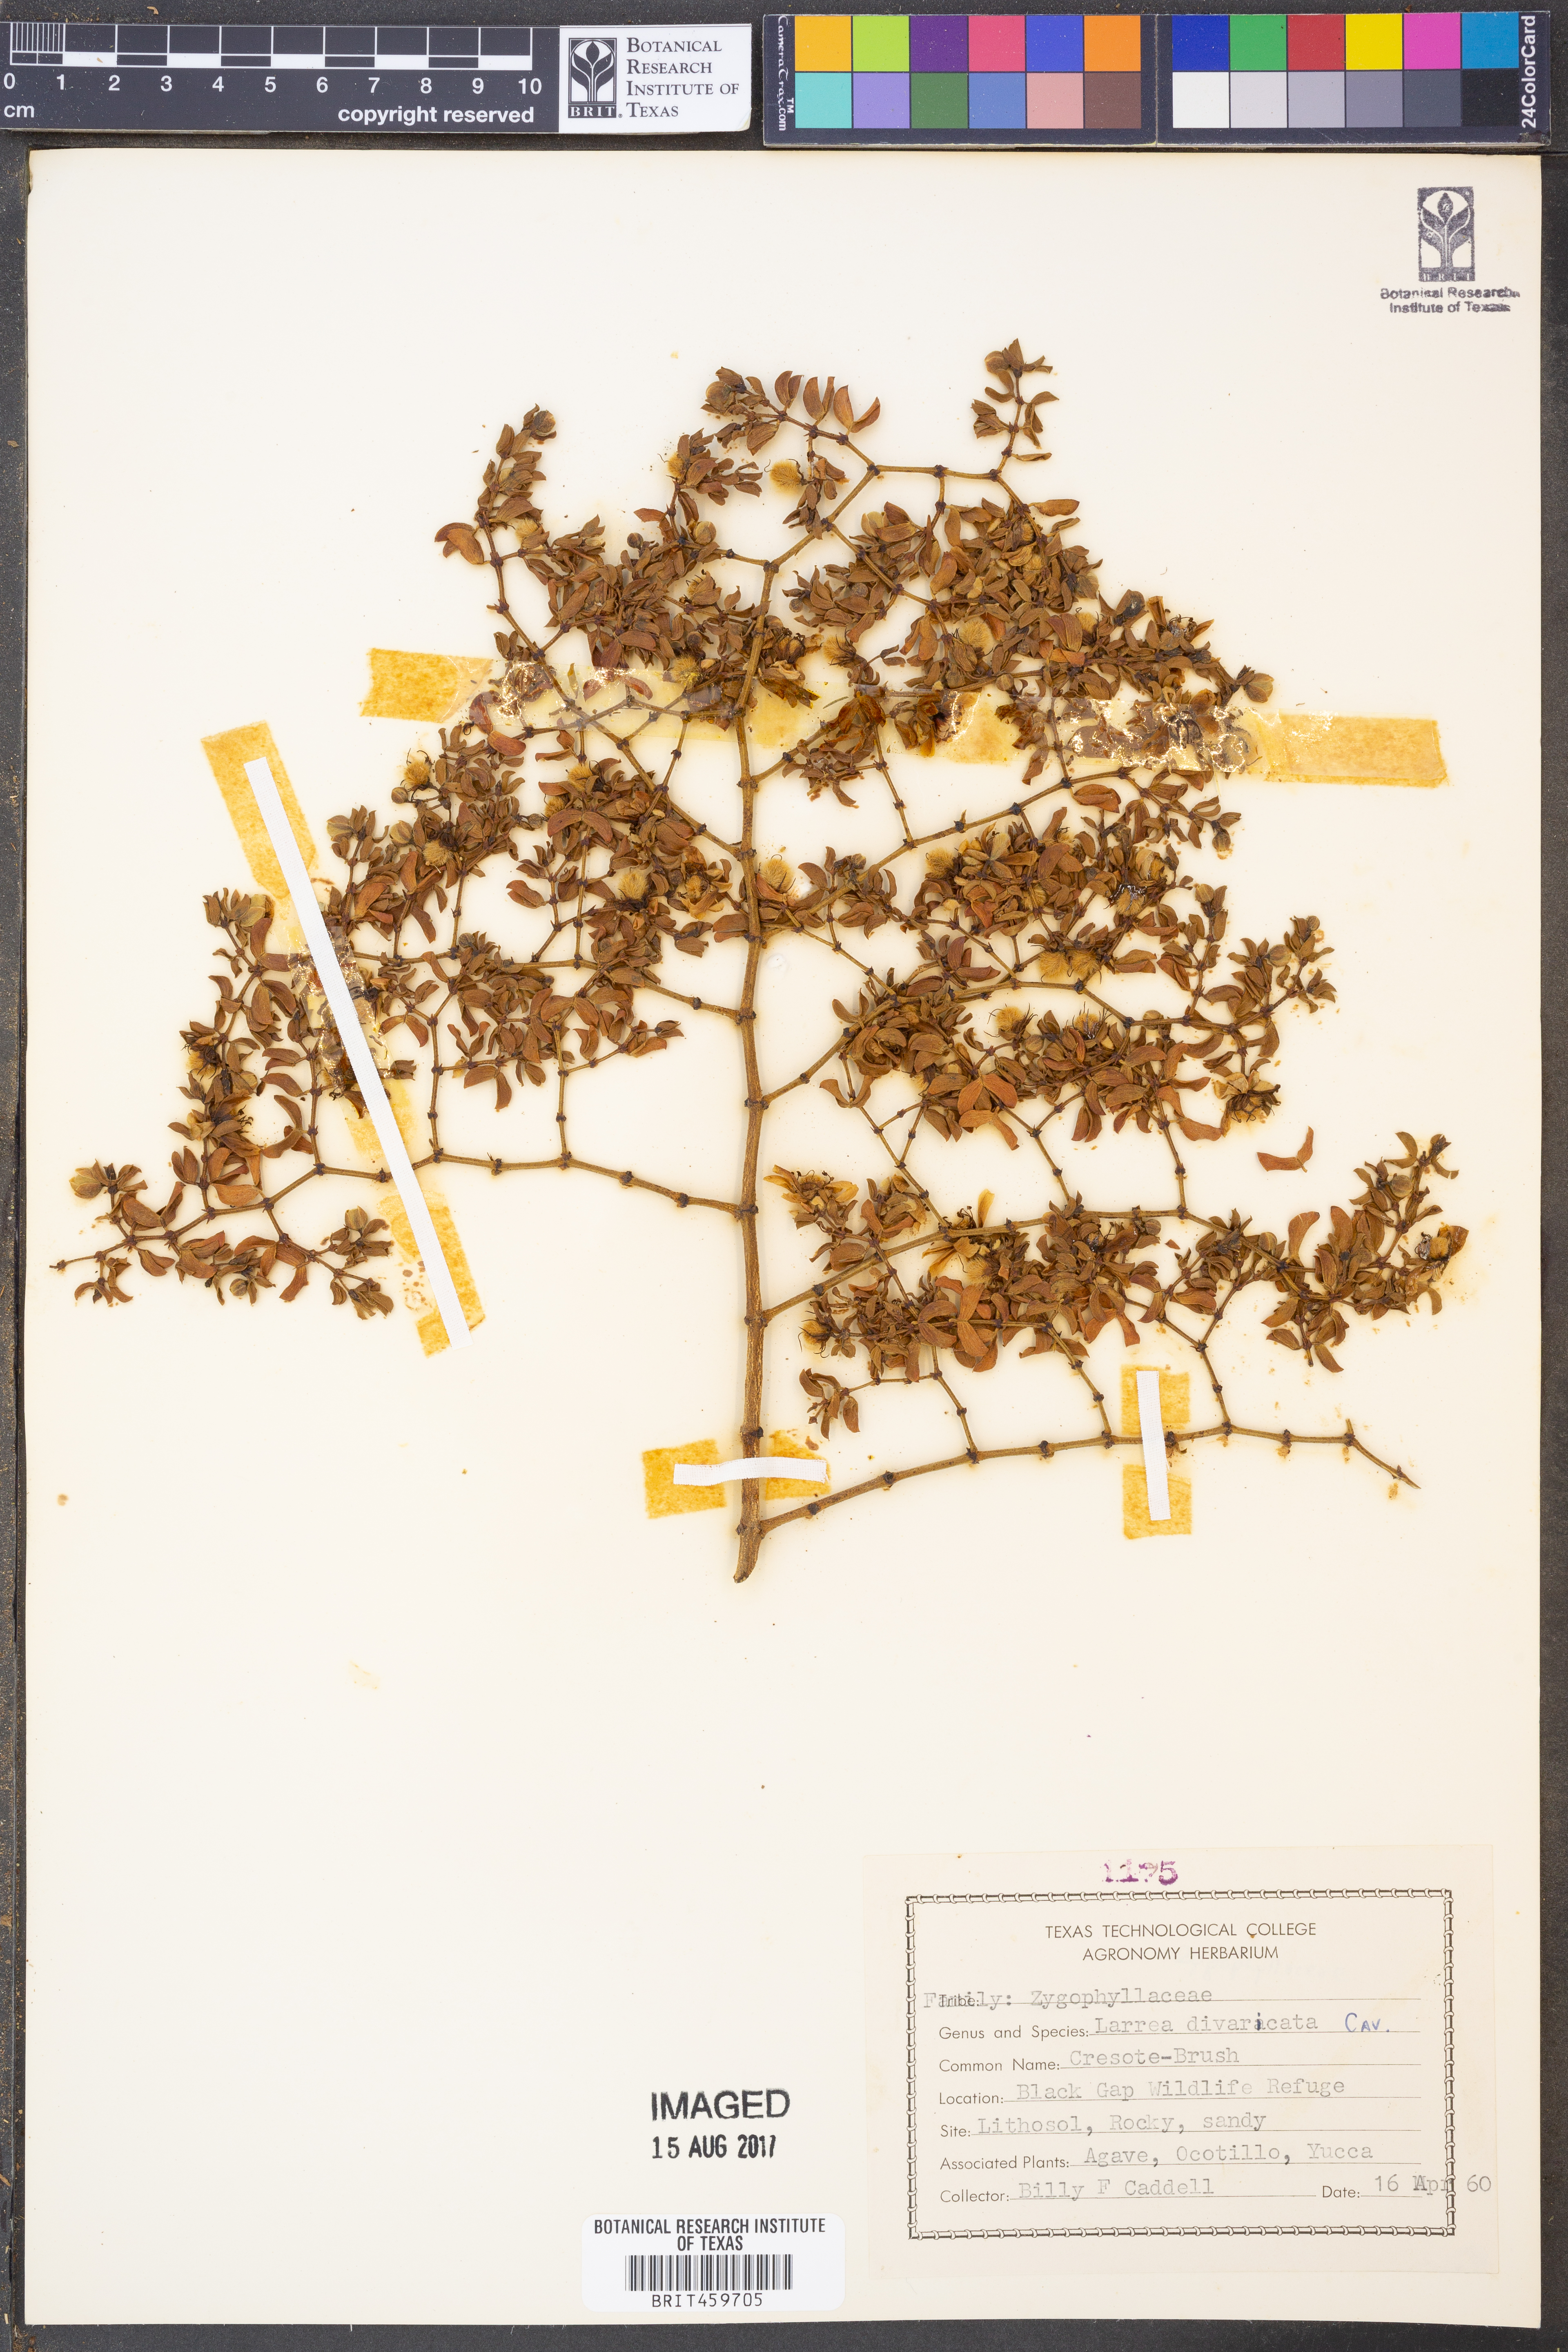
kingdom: Plantae
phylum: Tracheophyta
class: Magnoliopsida
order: Zygophyllales
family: Zygophyllaceae
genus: Larrea
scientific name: Larrea divaricata
